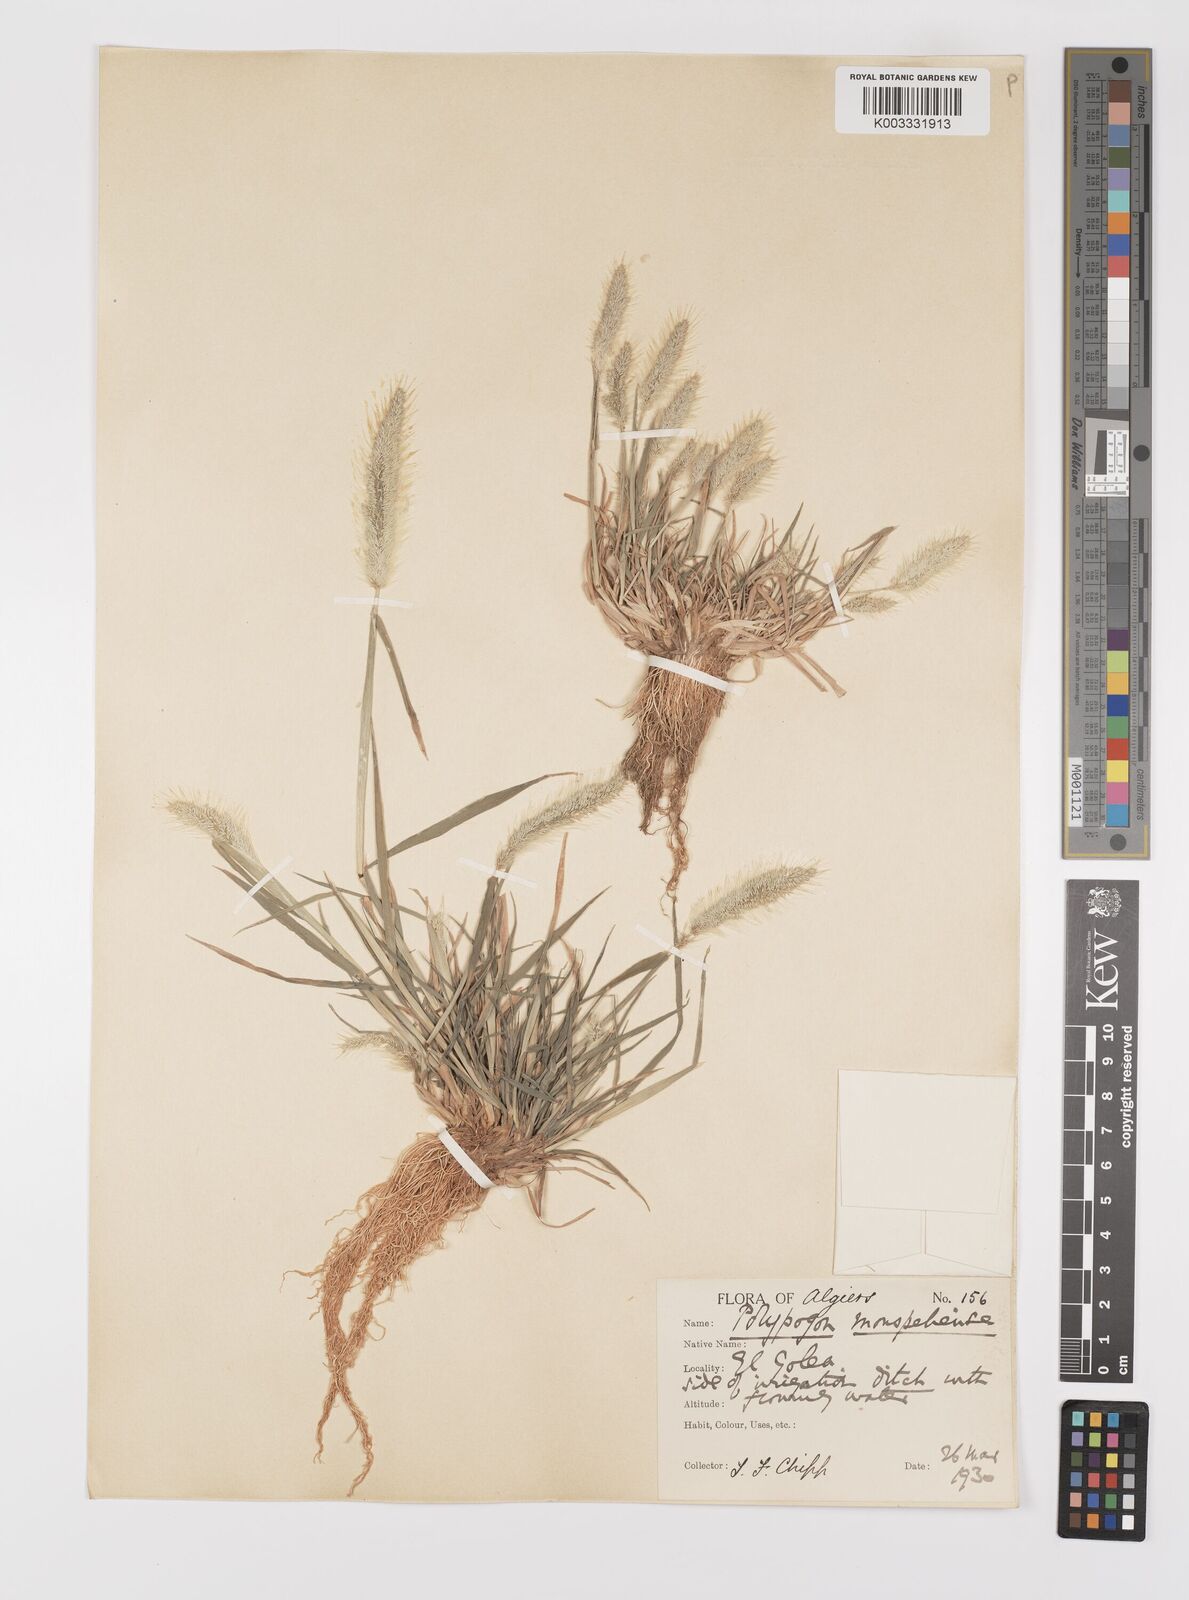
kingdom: Plantae
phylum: Tracheophyta
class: Liliopsida
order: Poales
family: Poaceae
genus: Polypogon
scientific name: Polypogon monspeliensis
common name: Annual rabbitsfoot grass
